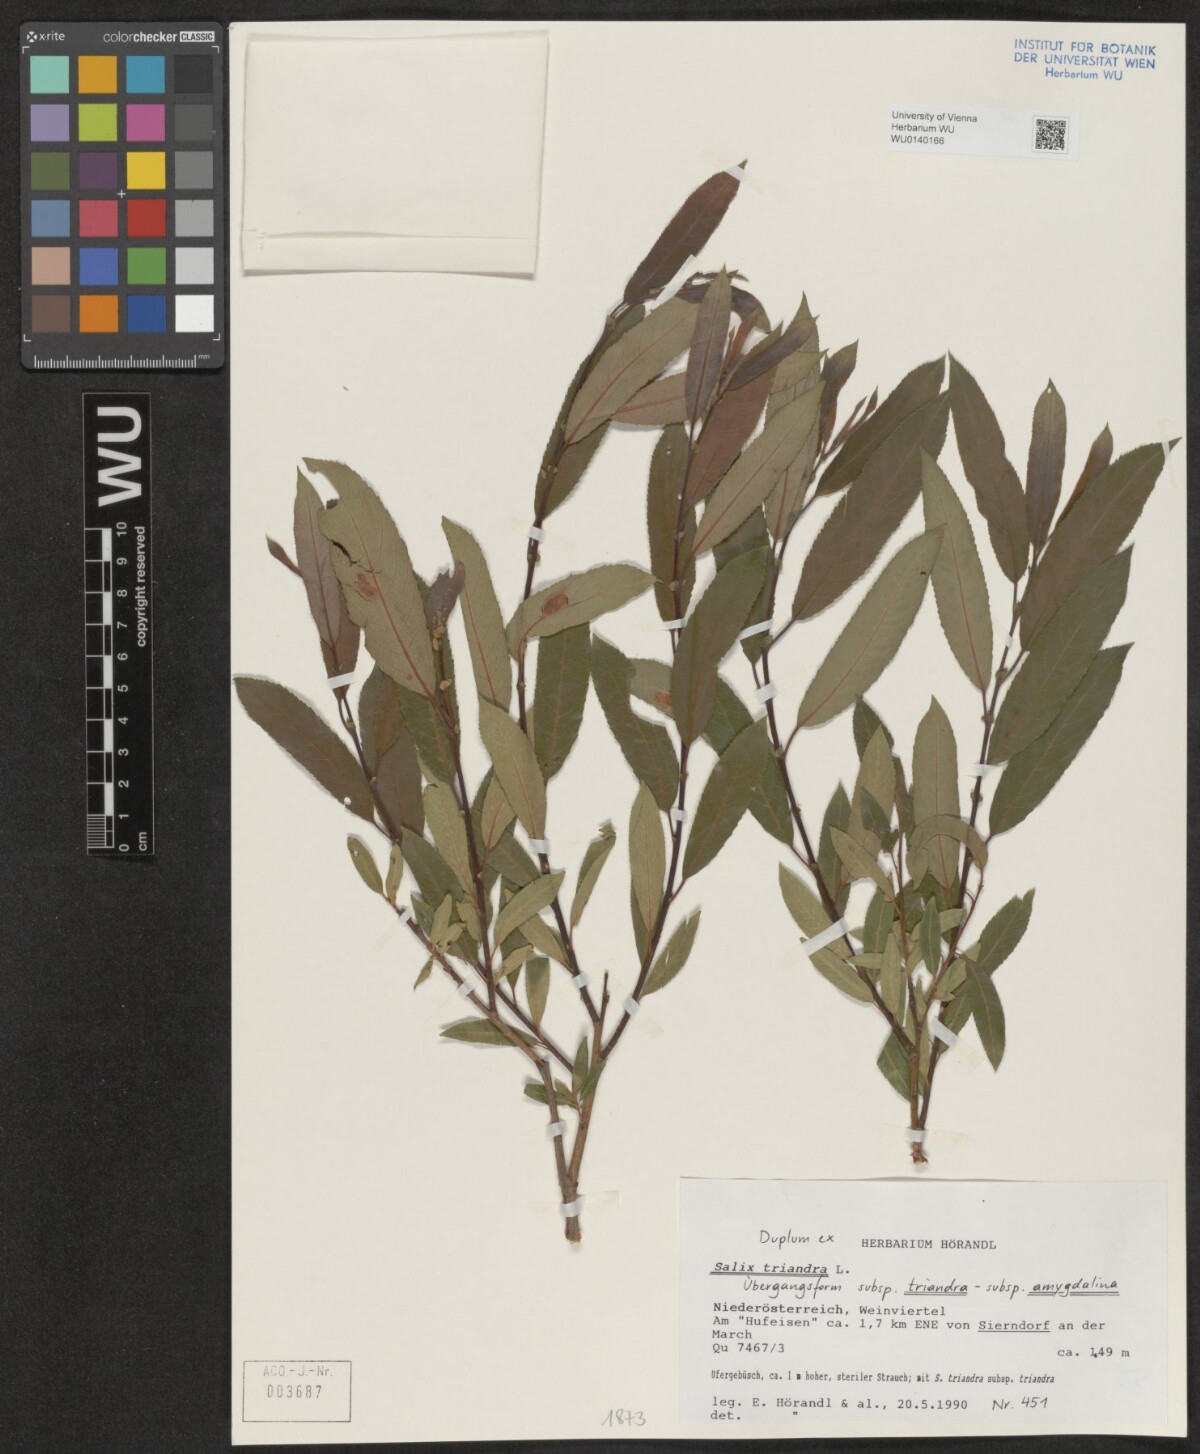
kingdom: Plantae
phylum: Tracheophyta
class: Magnoliopsida
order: Malpighiales
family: Salicaceae
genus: Salix
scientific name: Salix triandra
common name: Almond willow
